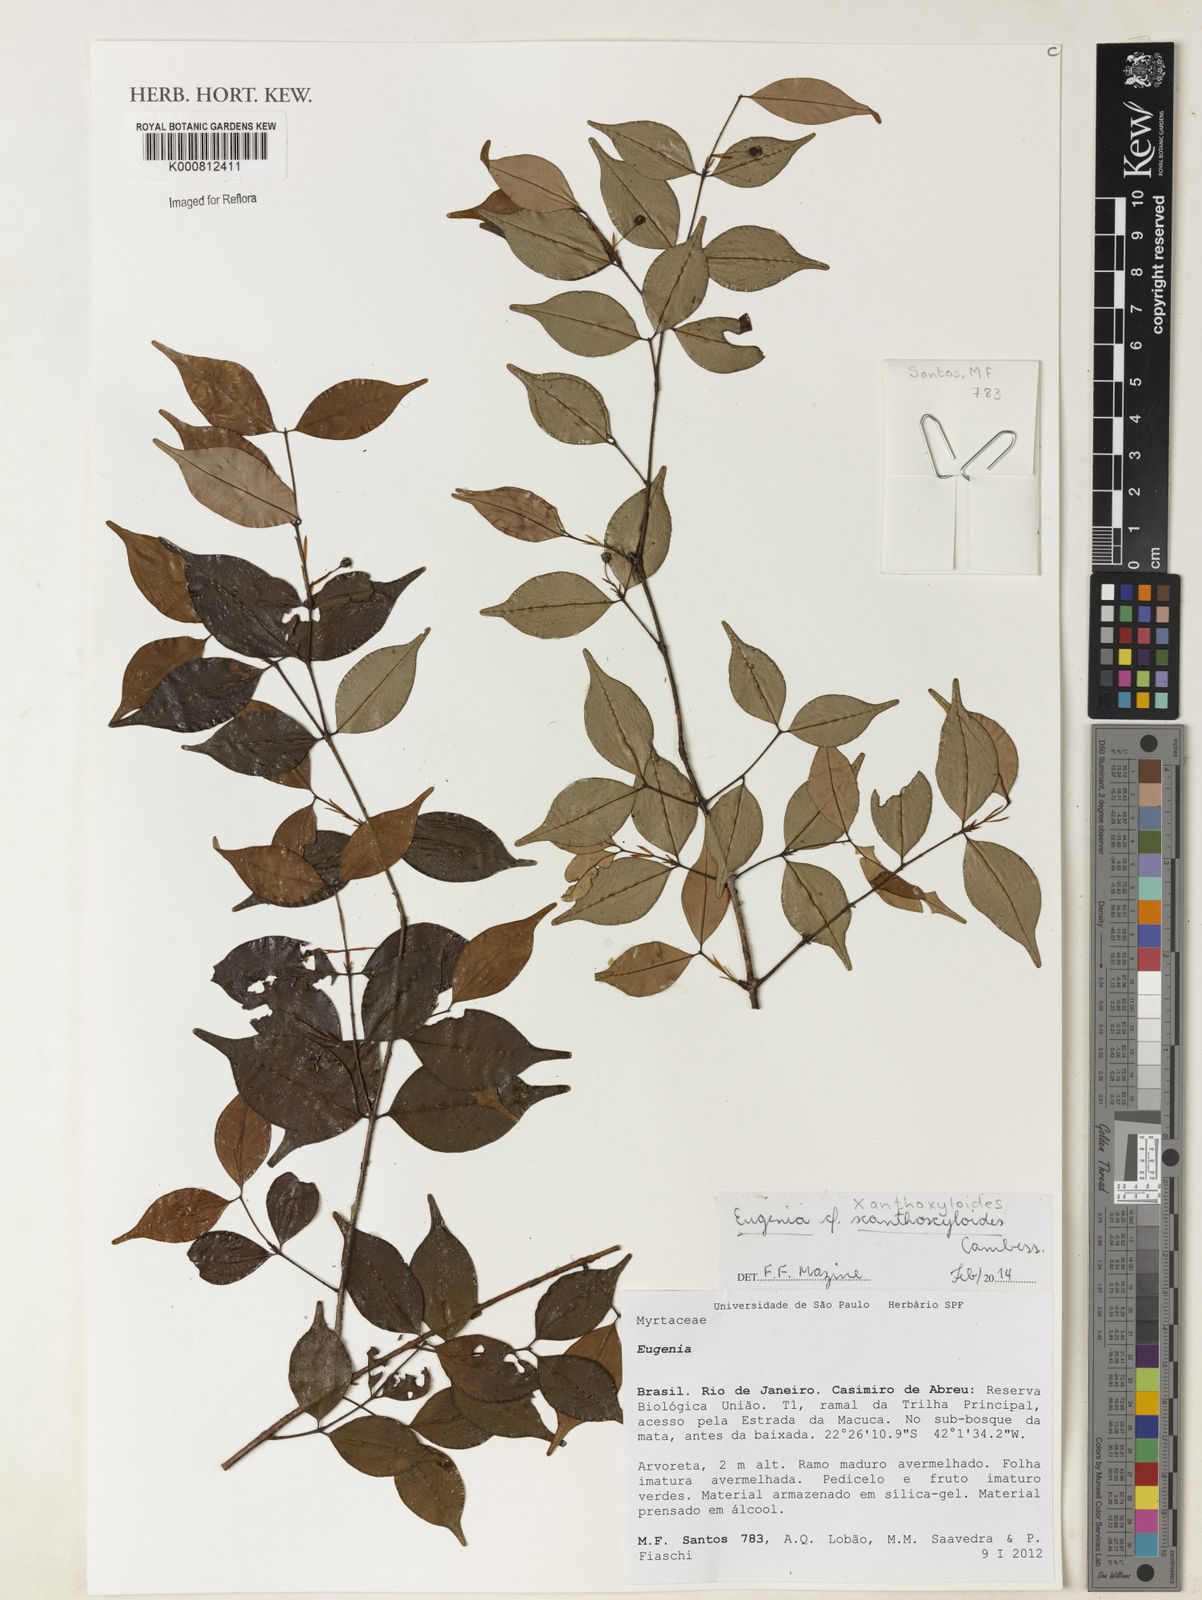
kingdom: Plantae
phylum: Tracheophyta
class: Magnoliopsida
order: Myrtales
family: Myrtaceae
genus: Eugenia
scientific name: Eugenia xanthoxyloides
